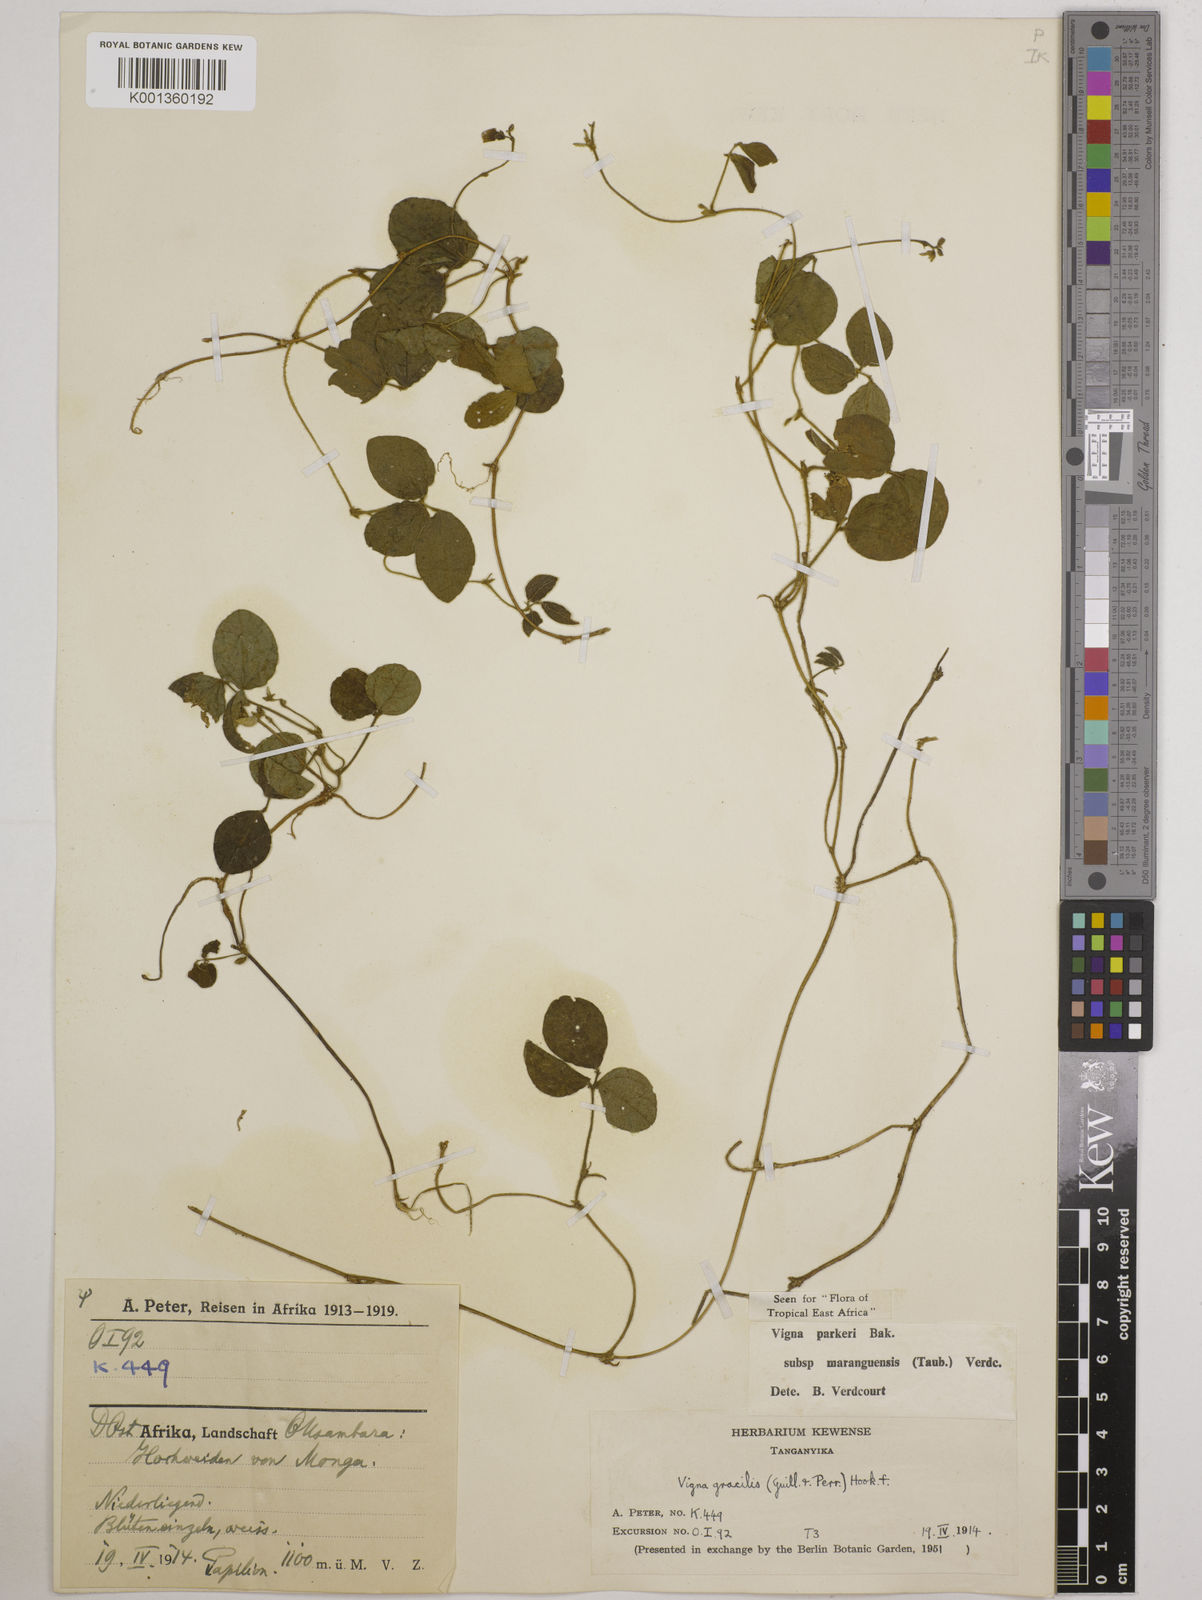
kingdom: Plantae
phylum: Tracheophyta
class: Magnoliopsida
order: Fabales
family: Fabaceae
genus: Vigna
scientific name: Vigna
